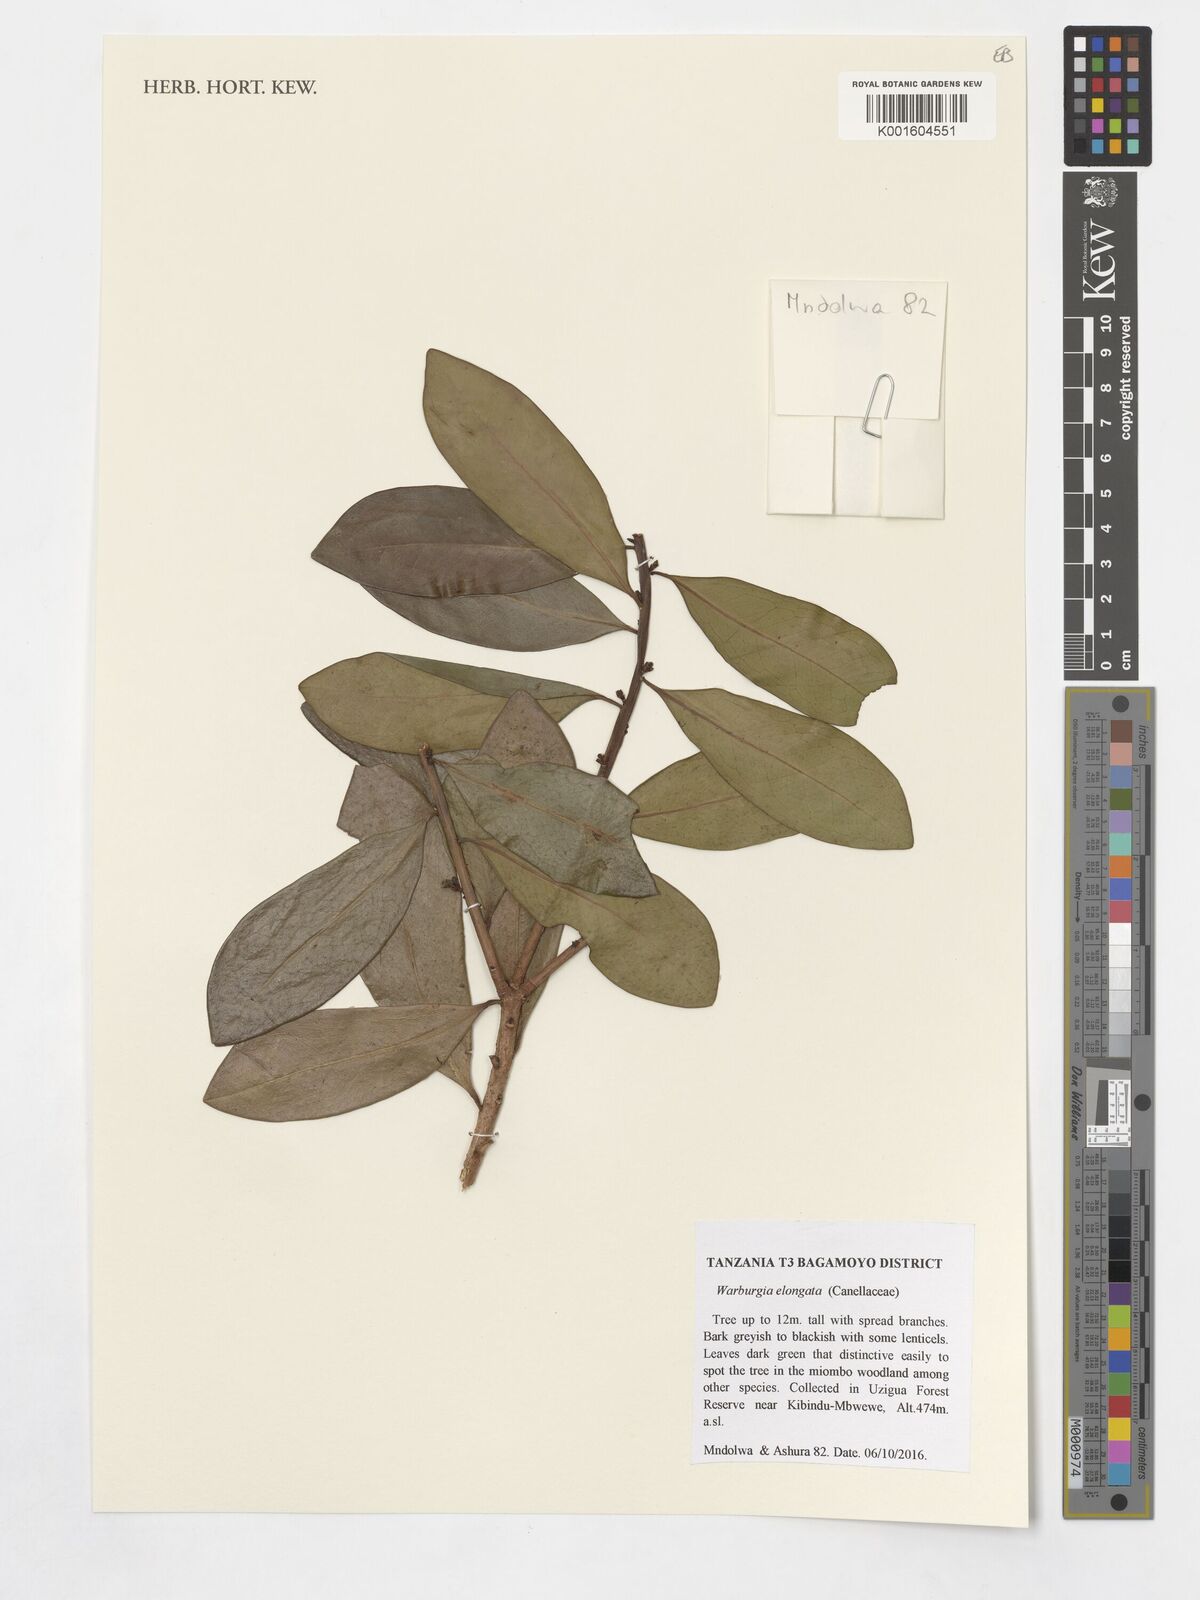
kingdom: Plantae
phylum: Tracheophyta
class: Magnoliopsida
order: Canellales
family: Canellaceae
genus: Warburgia
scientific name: Warburgia elongata
